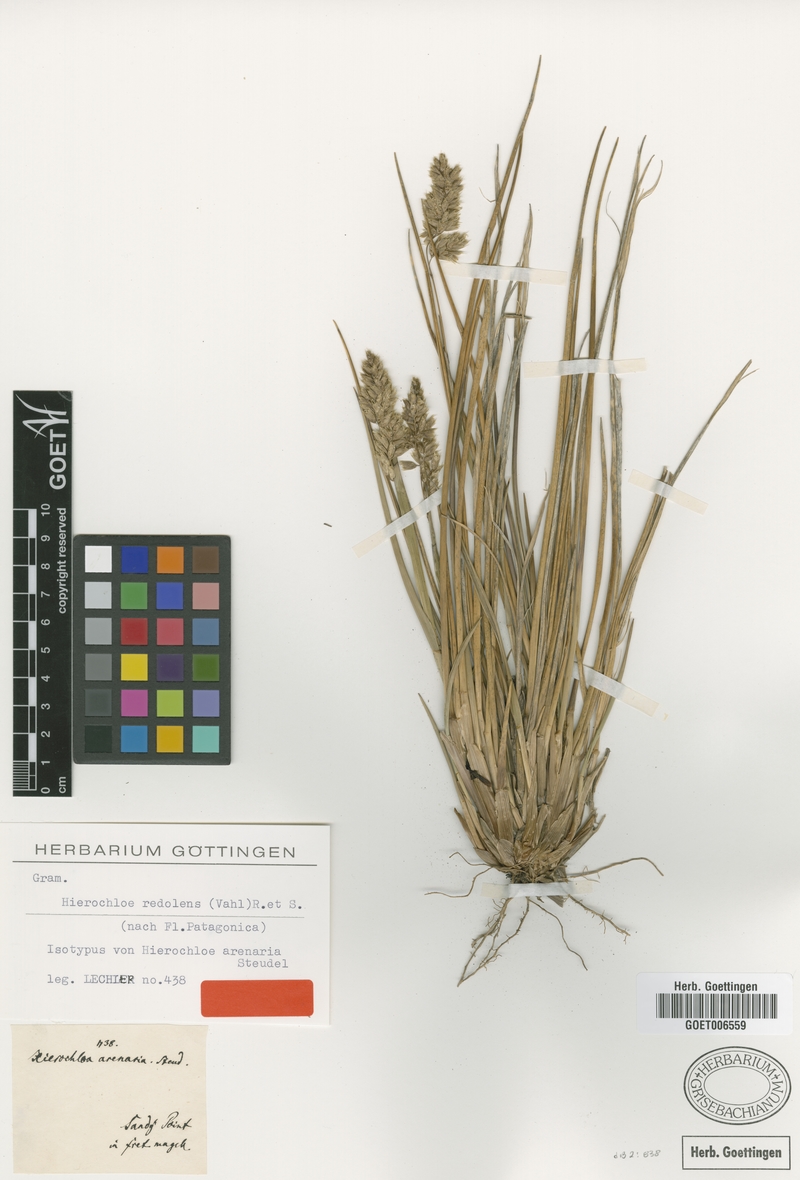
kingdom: Plantae
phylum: Tracheophyta
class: Liliopsida
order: Poales
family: Poaceae
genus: Anthoxanthum
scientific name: Anthoxanthum redolens
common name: Sweet holy grass
